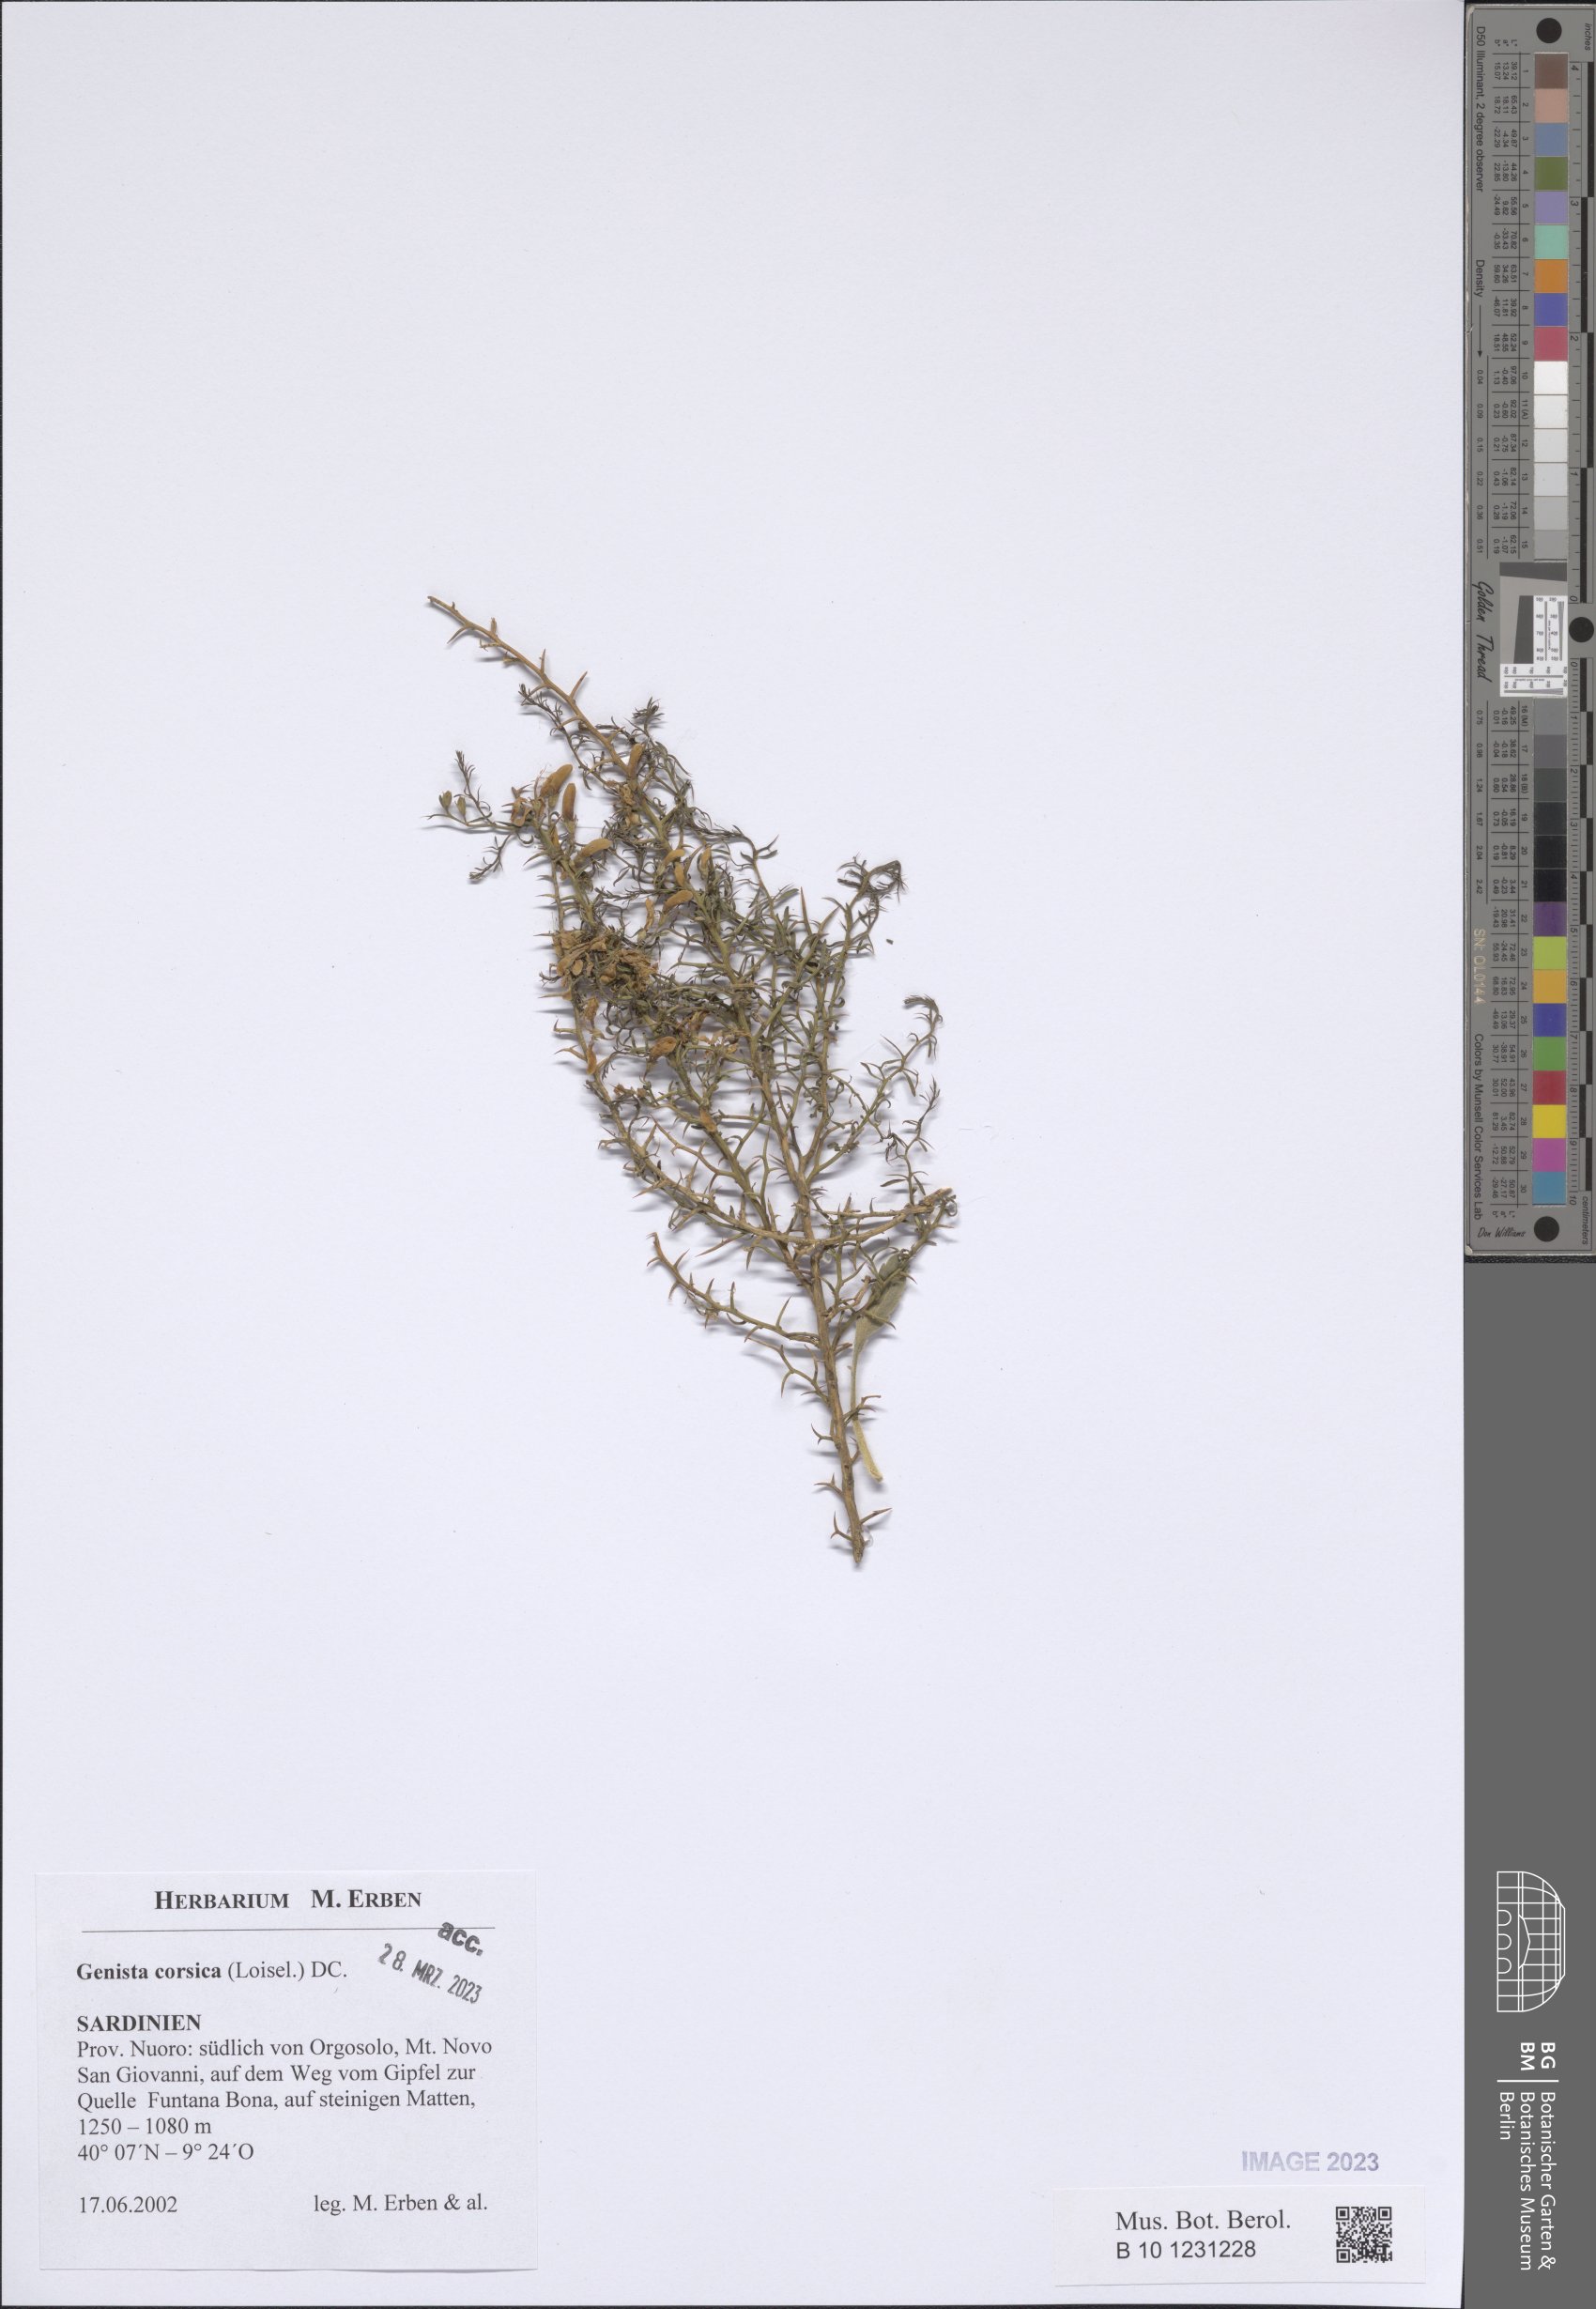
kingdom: Plantae
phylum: Tracheophyta
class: Magnoliopsida
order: Fabales
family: Fabaceae
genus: Genista
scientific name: Genista corsica
